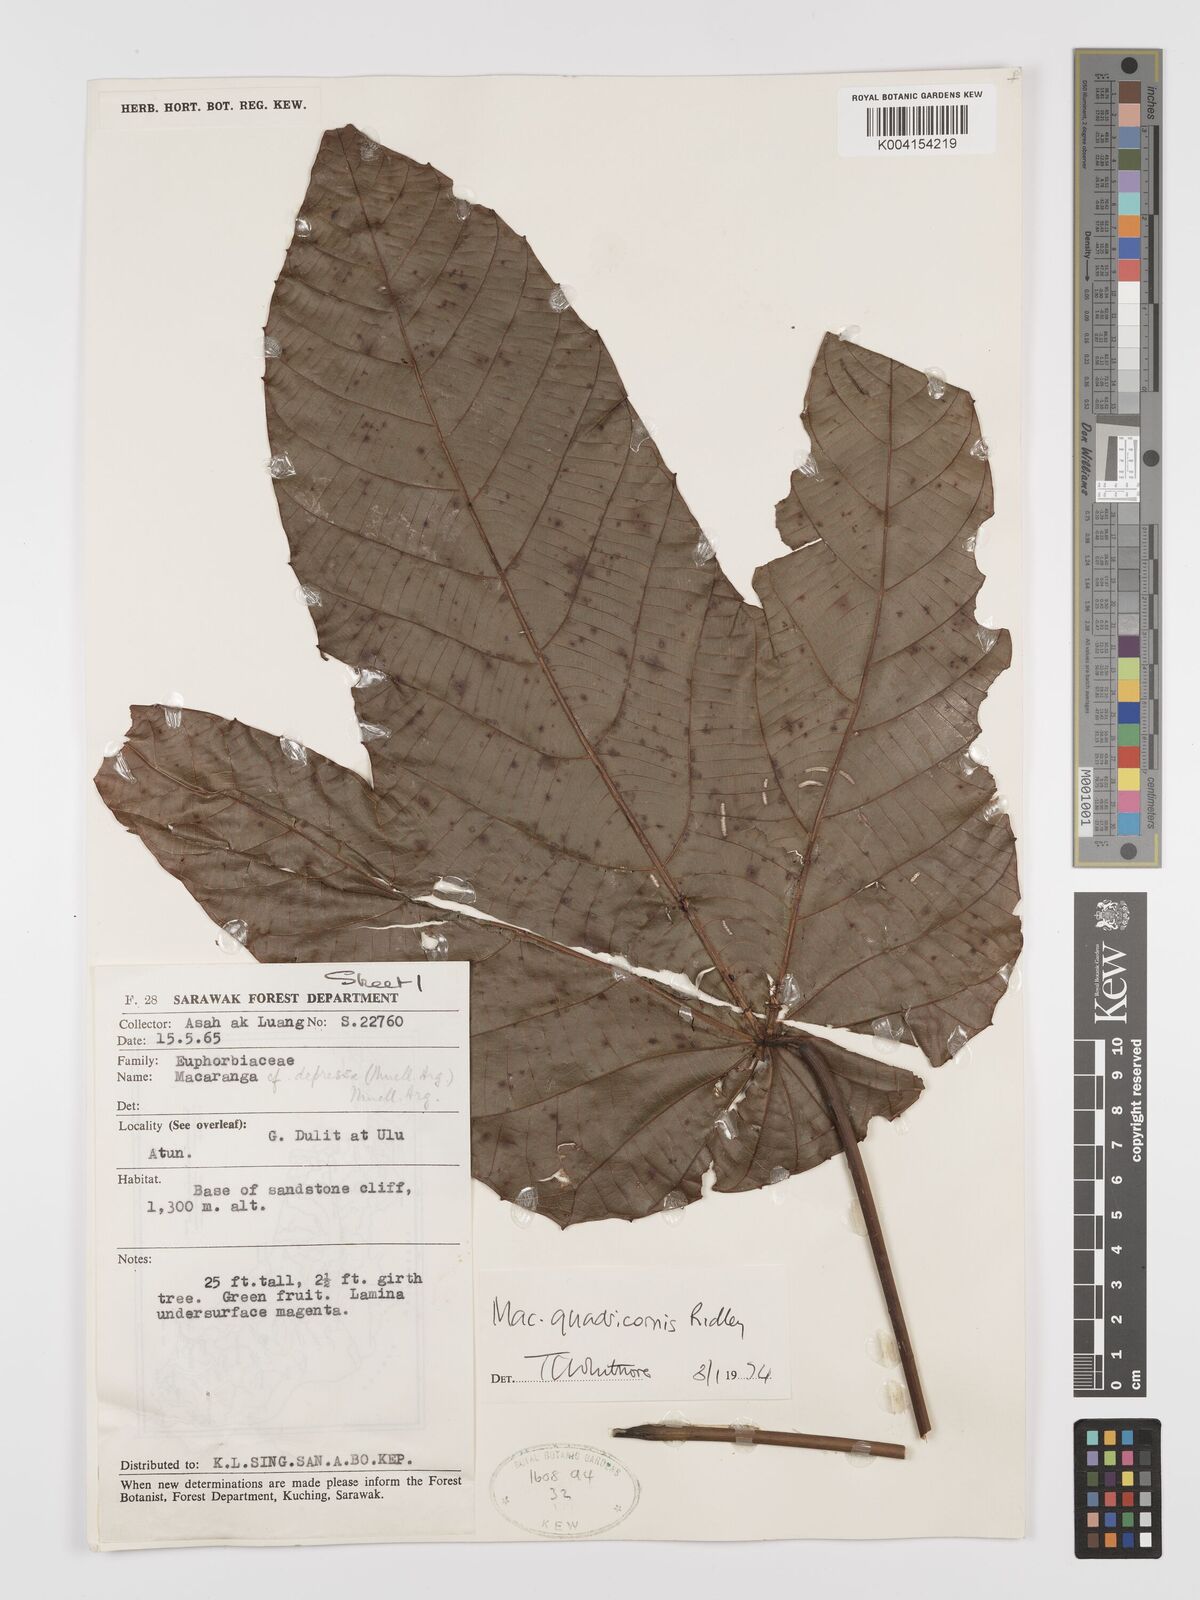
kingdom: Plantae
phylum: Tracheophyta
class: Magnoliopsida
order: Malpighiales
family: Euphorbiaceae
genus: Macaranga
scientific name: Macaranga triloba
